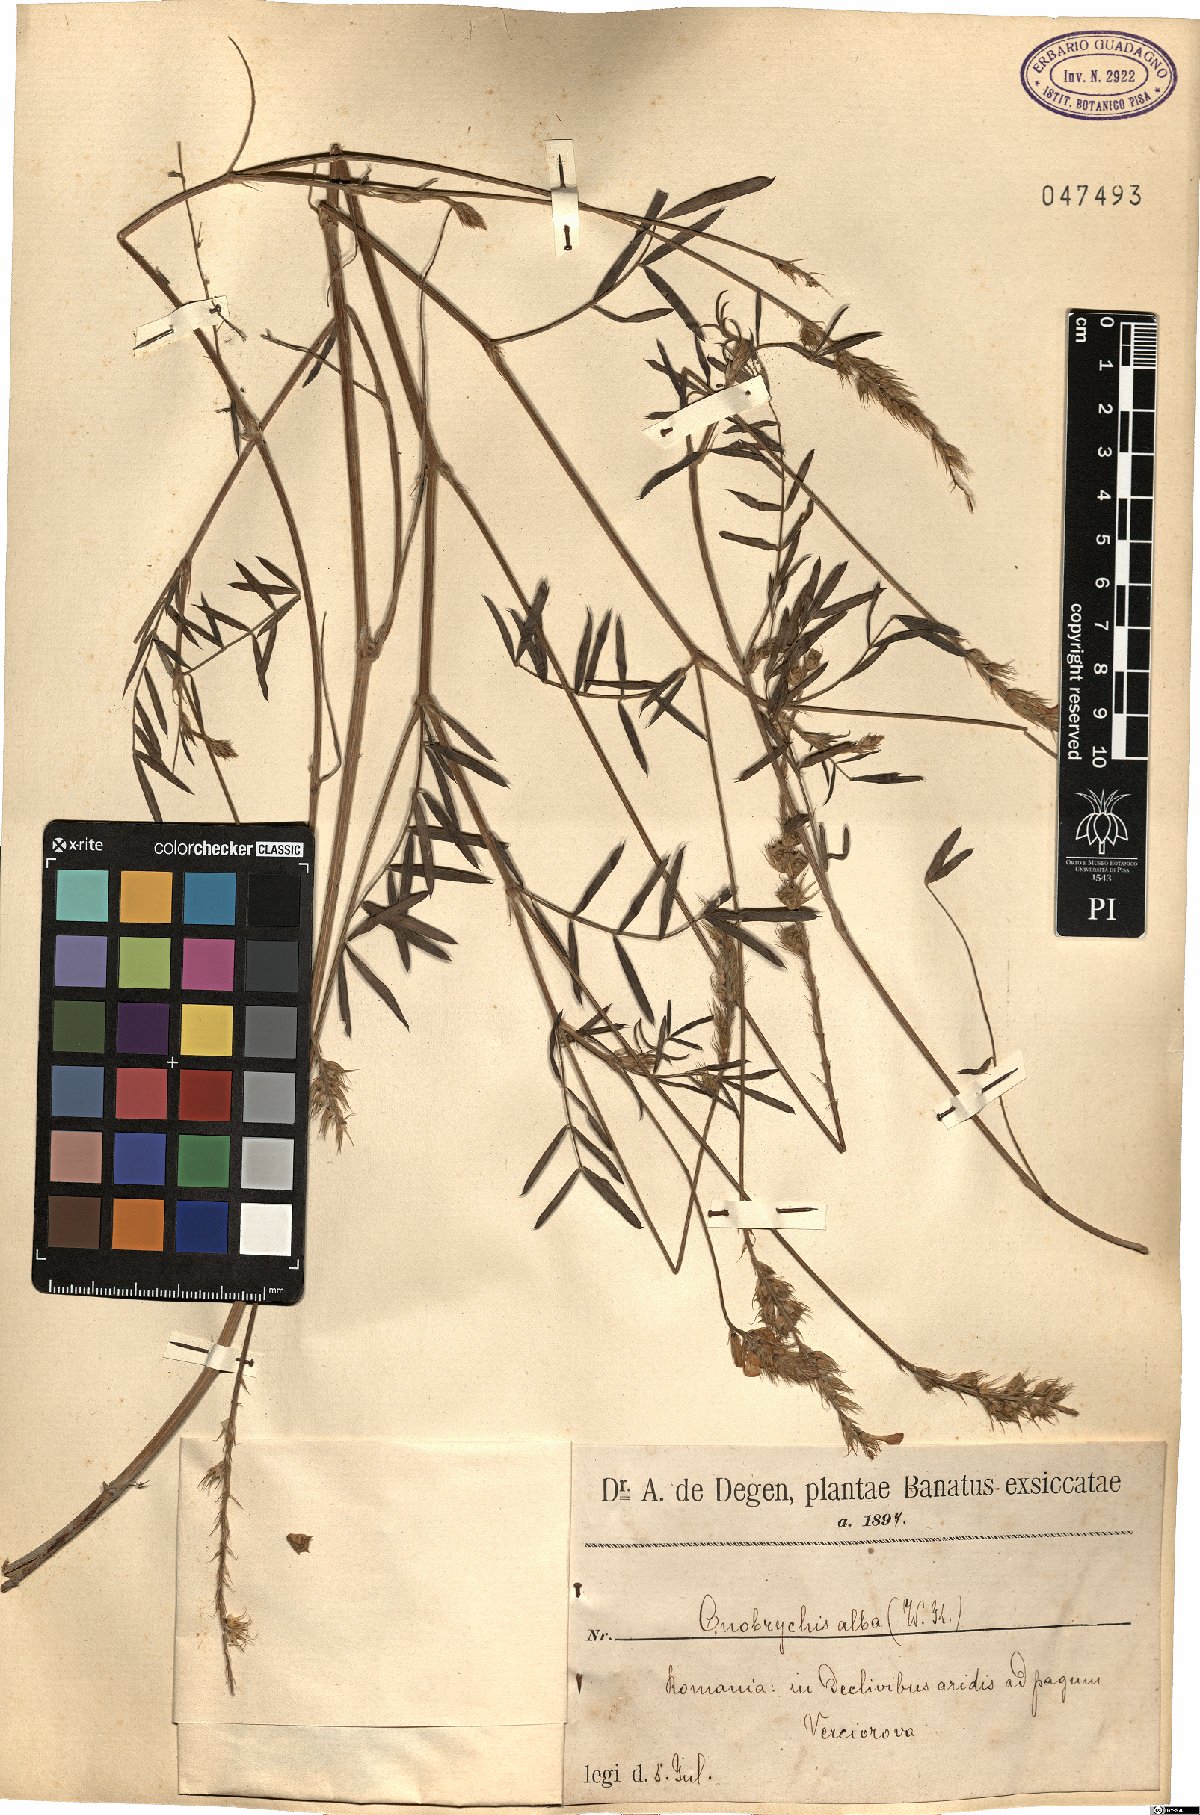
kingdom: Plantae
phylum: Tracheophyta
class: Magnoliopsida
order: Fabales
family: Fabaceae
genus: Onobrychis
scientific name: Onobrychis alba
